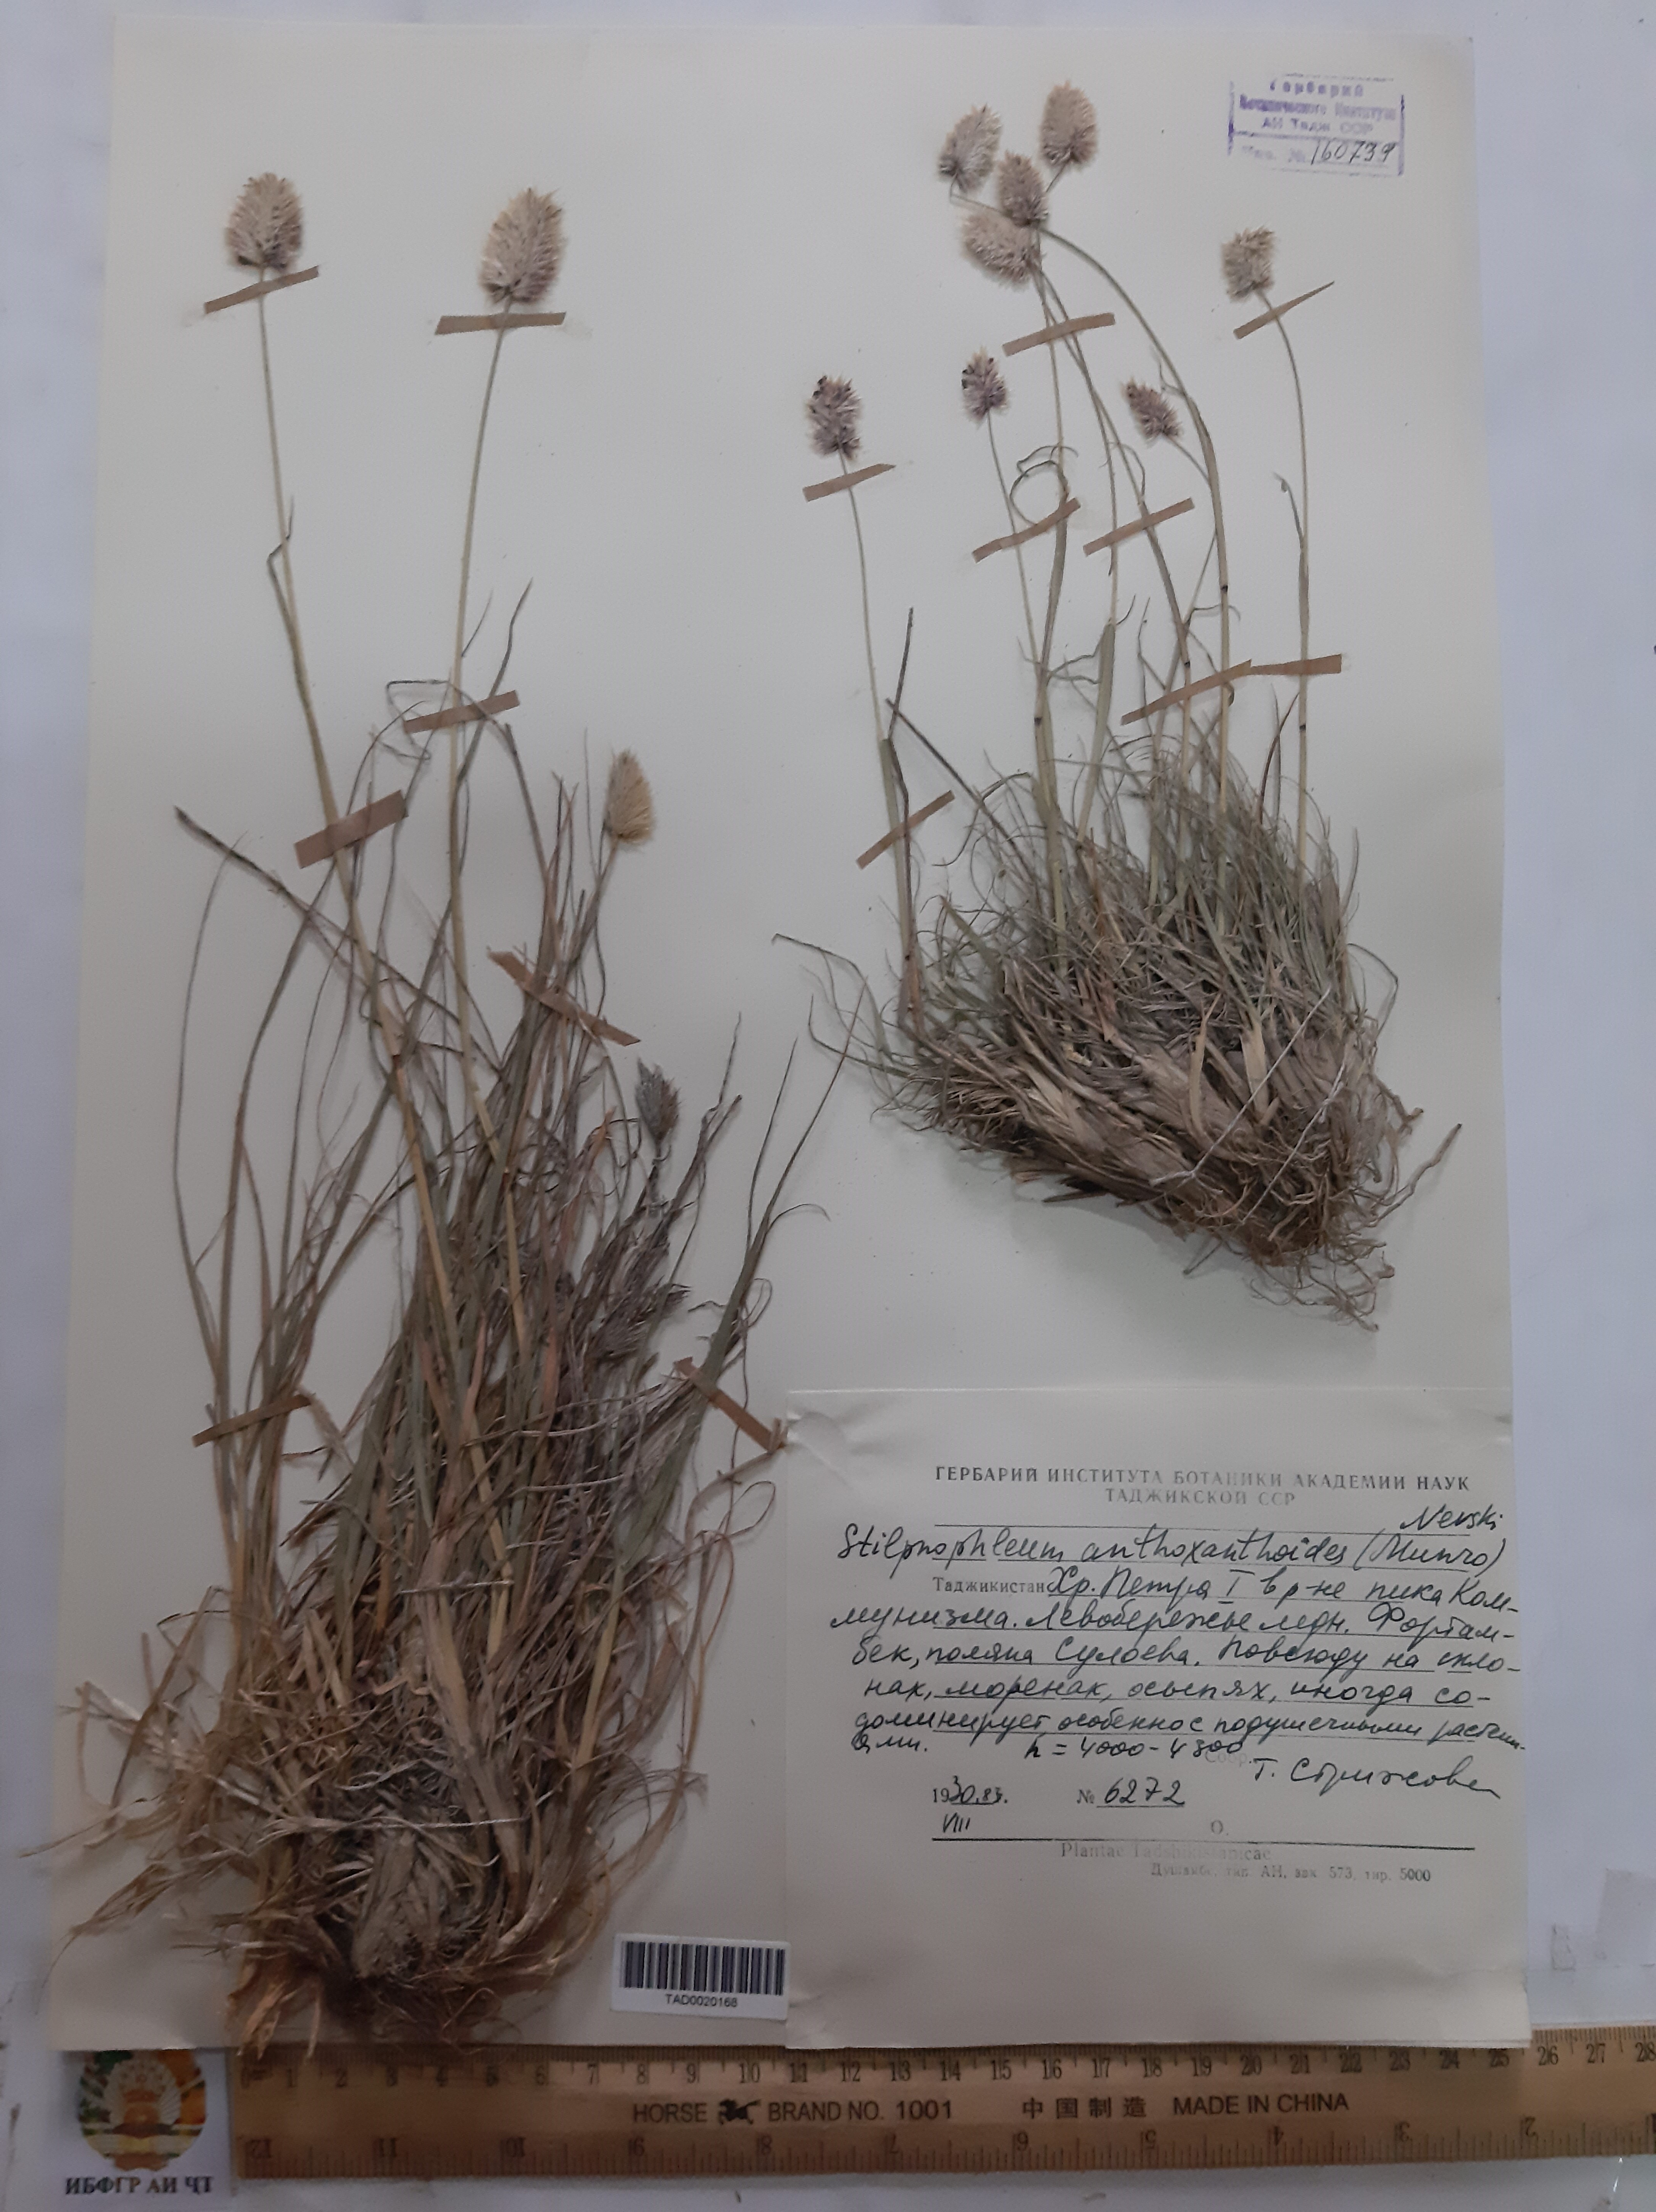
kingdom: Plantae
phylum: Tracheophyta
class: Liliopsida
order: Poales
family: Poaceae
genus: Calamagrostis
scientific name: Calamagrostis anthoxanthoides
